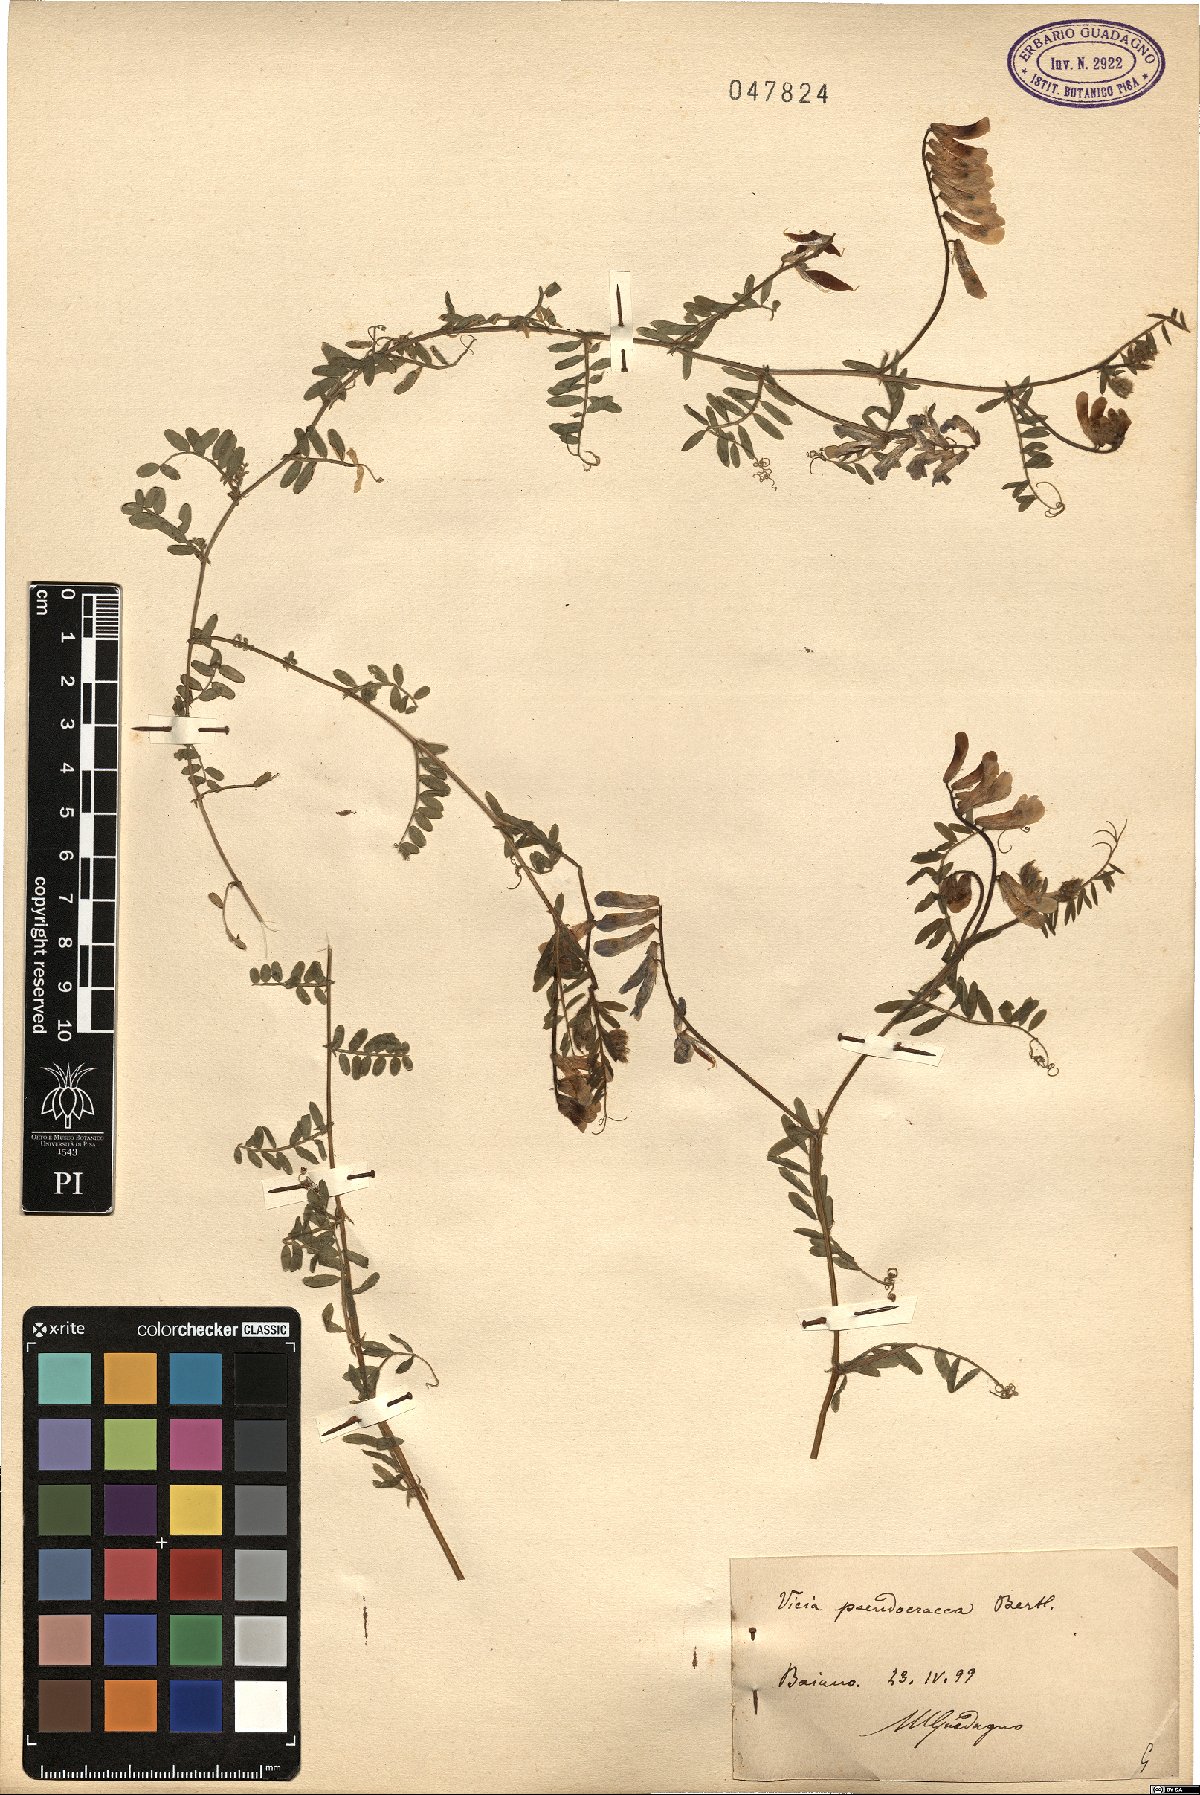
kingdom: Plantae
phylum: Tracheophyta
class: Magnoliopsida
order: Fabales
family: Fabaceae
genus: Vicia
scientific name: Vicia villosa
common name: Fodder vetch
